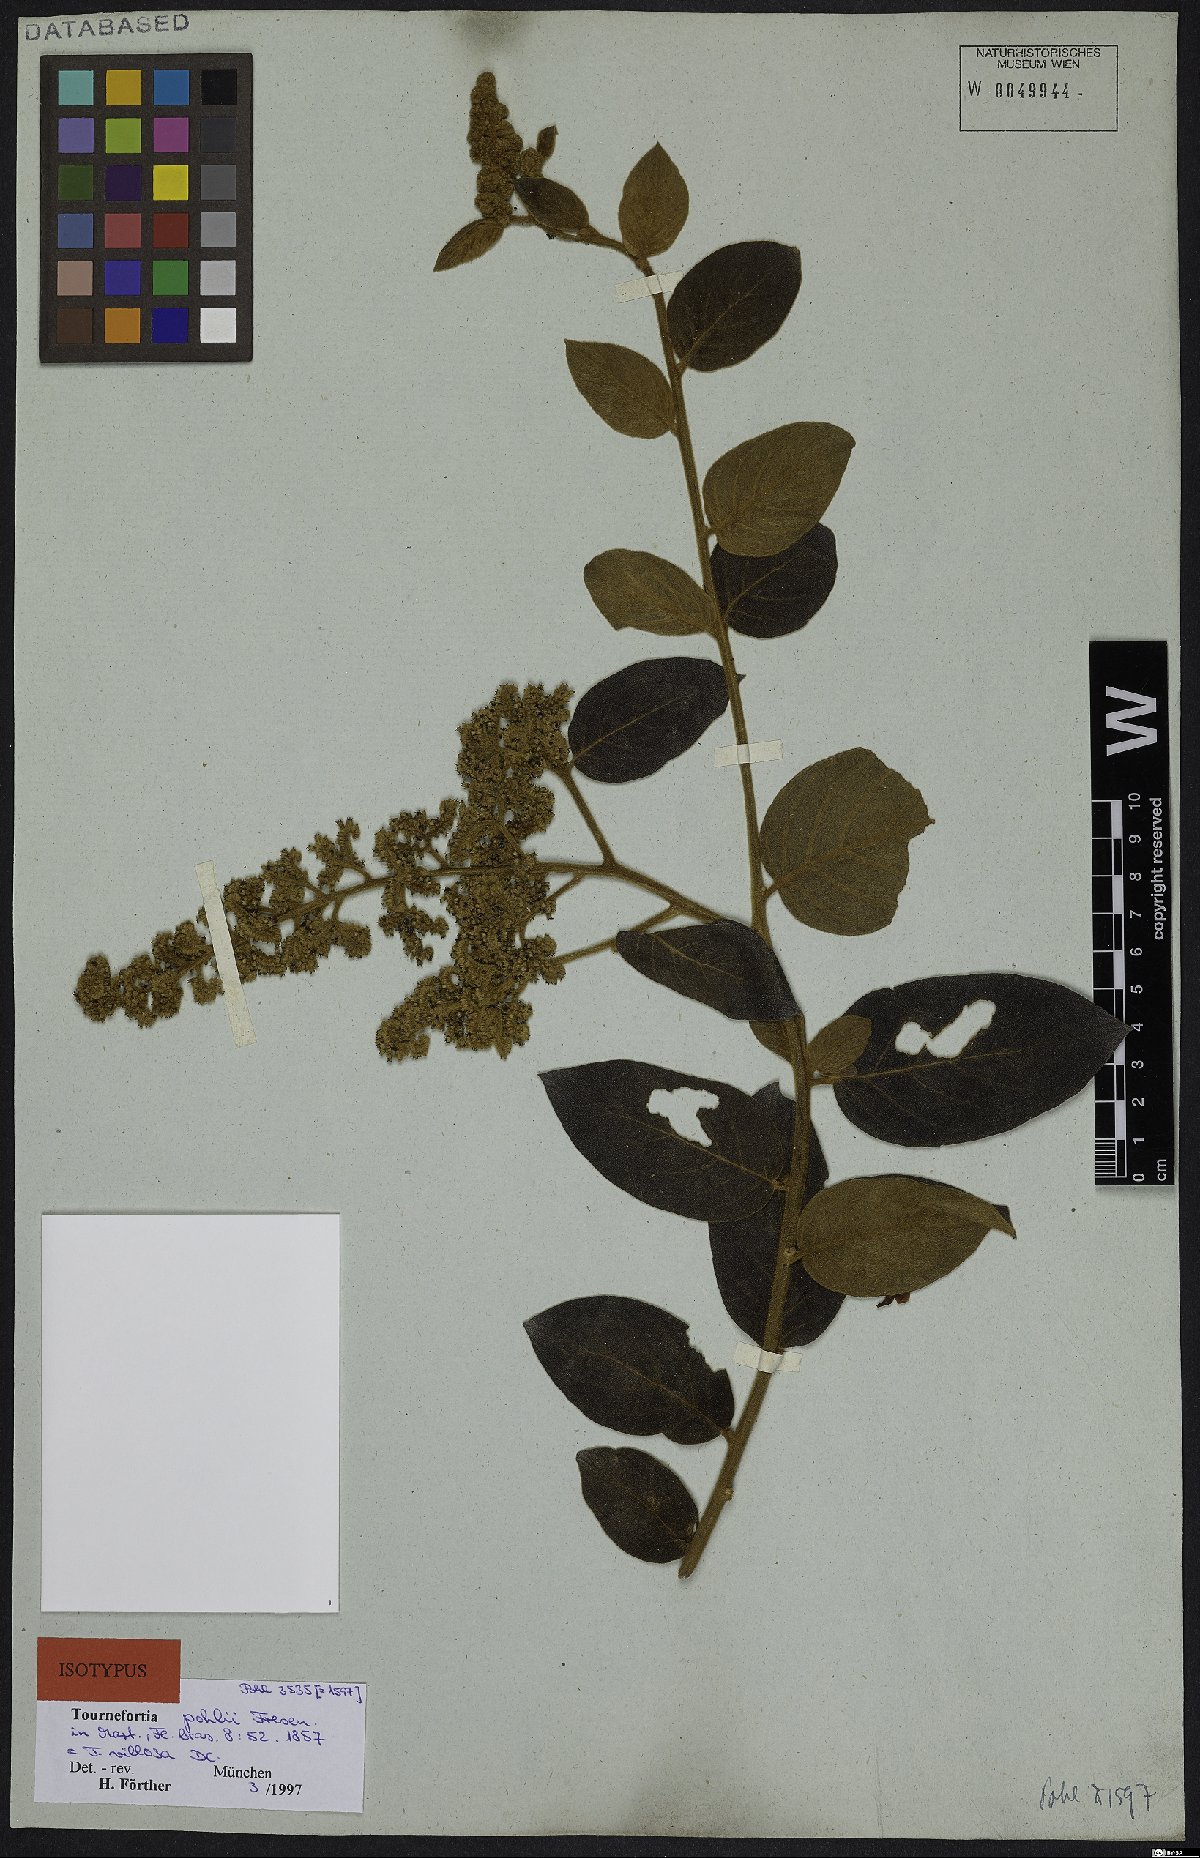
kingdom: Plantae
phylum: Tracheophyta
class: Magnoliopsida
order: Boraginales
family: Heliotropiaceae
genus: Tournefortia
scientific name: Tournefortia villosa
